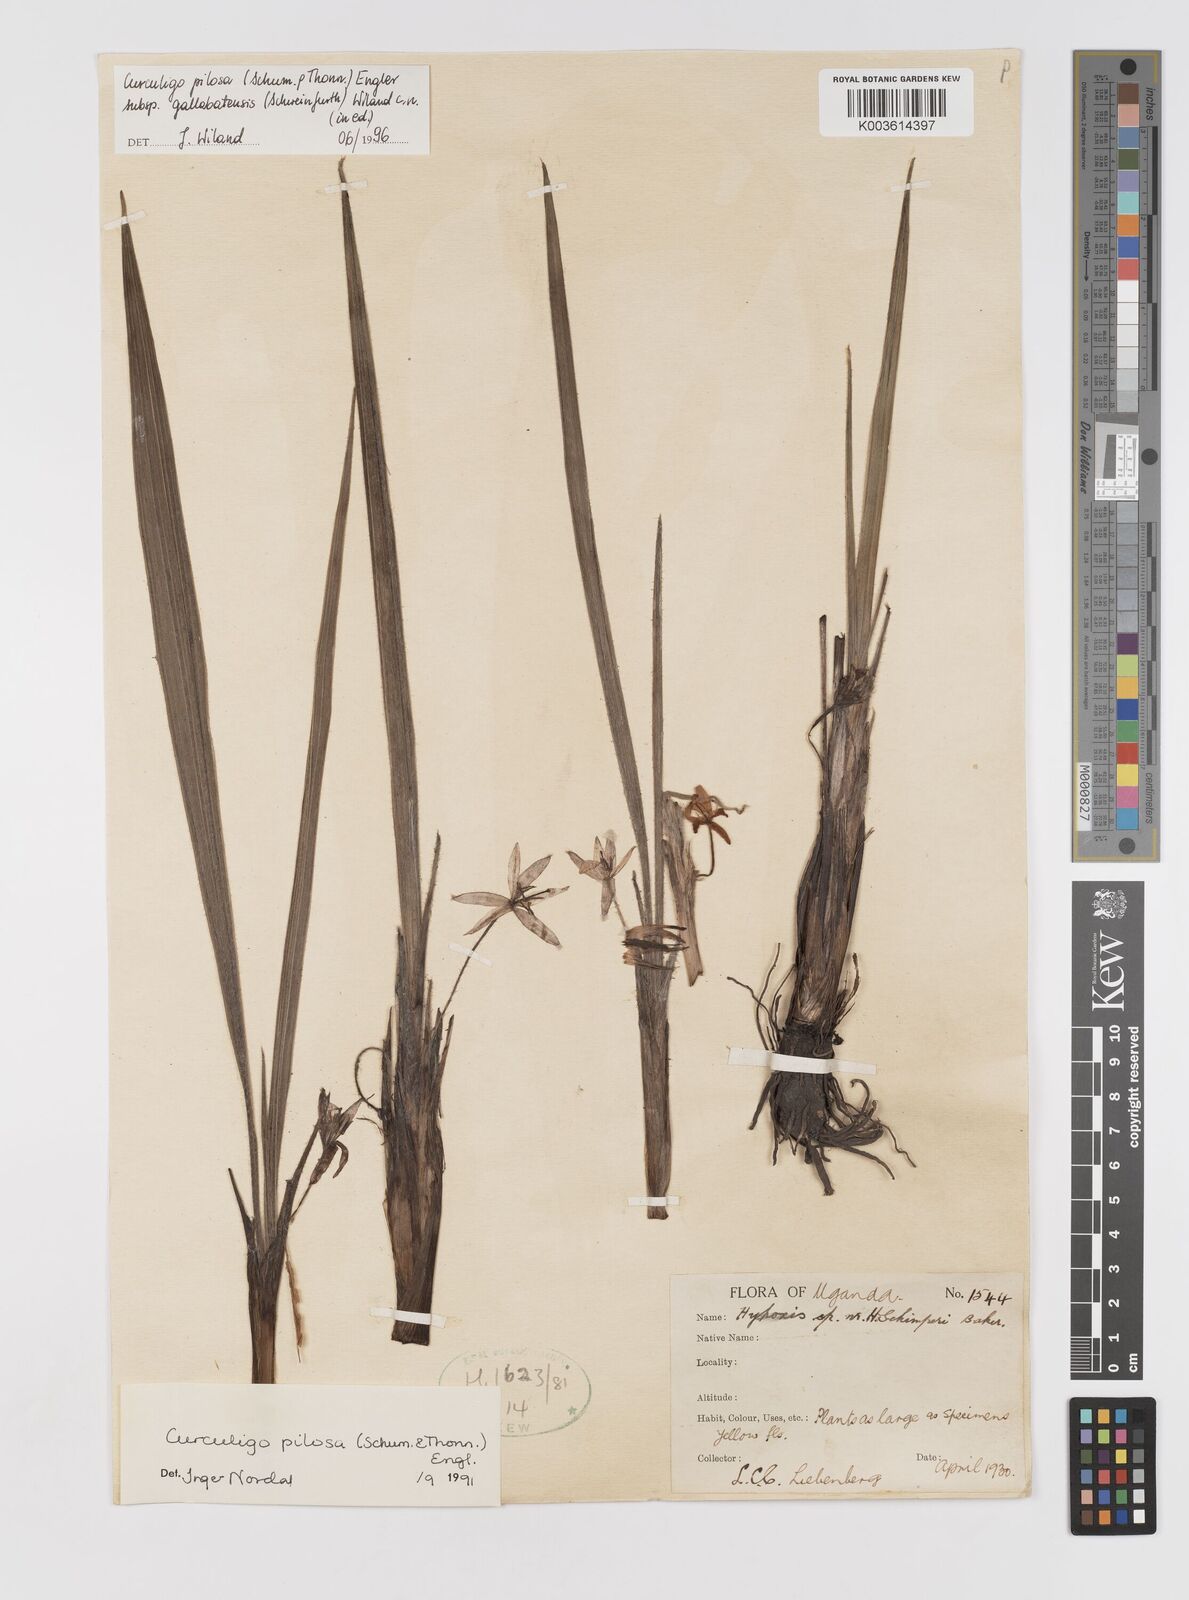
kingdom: Plantae
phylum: Tracheophyta
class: Liliopsida
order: Asparagales
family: Hypoxidaceae
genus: Curculigo
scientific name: Curculigo pilosa
